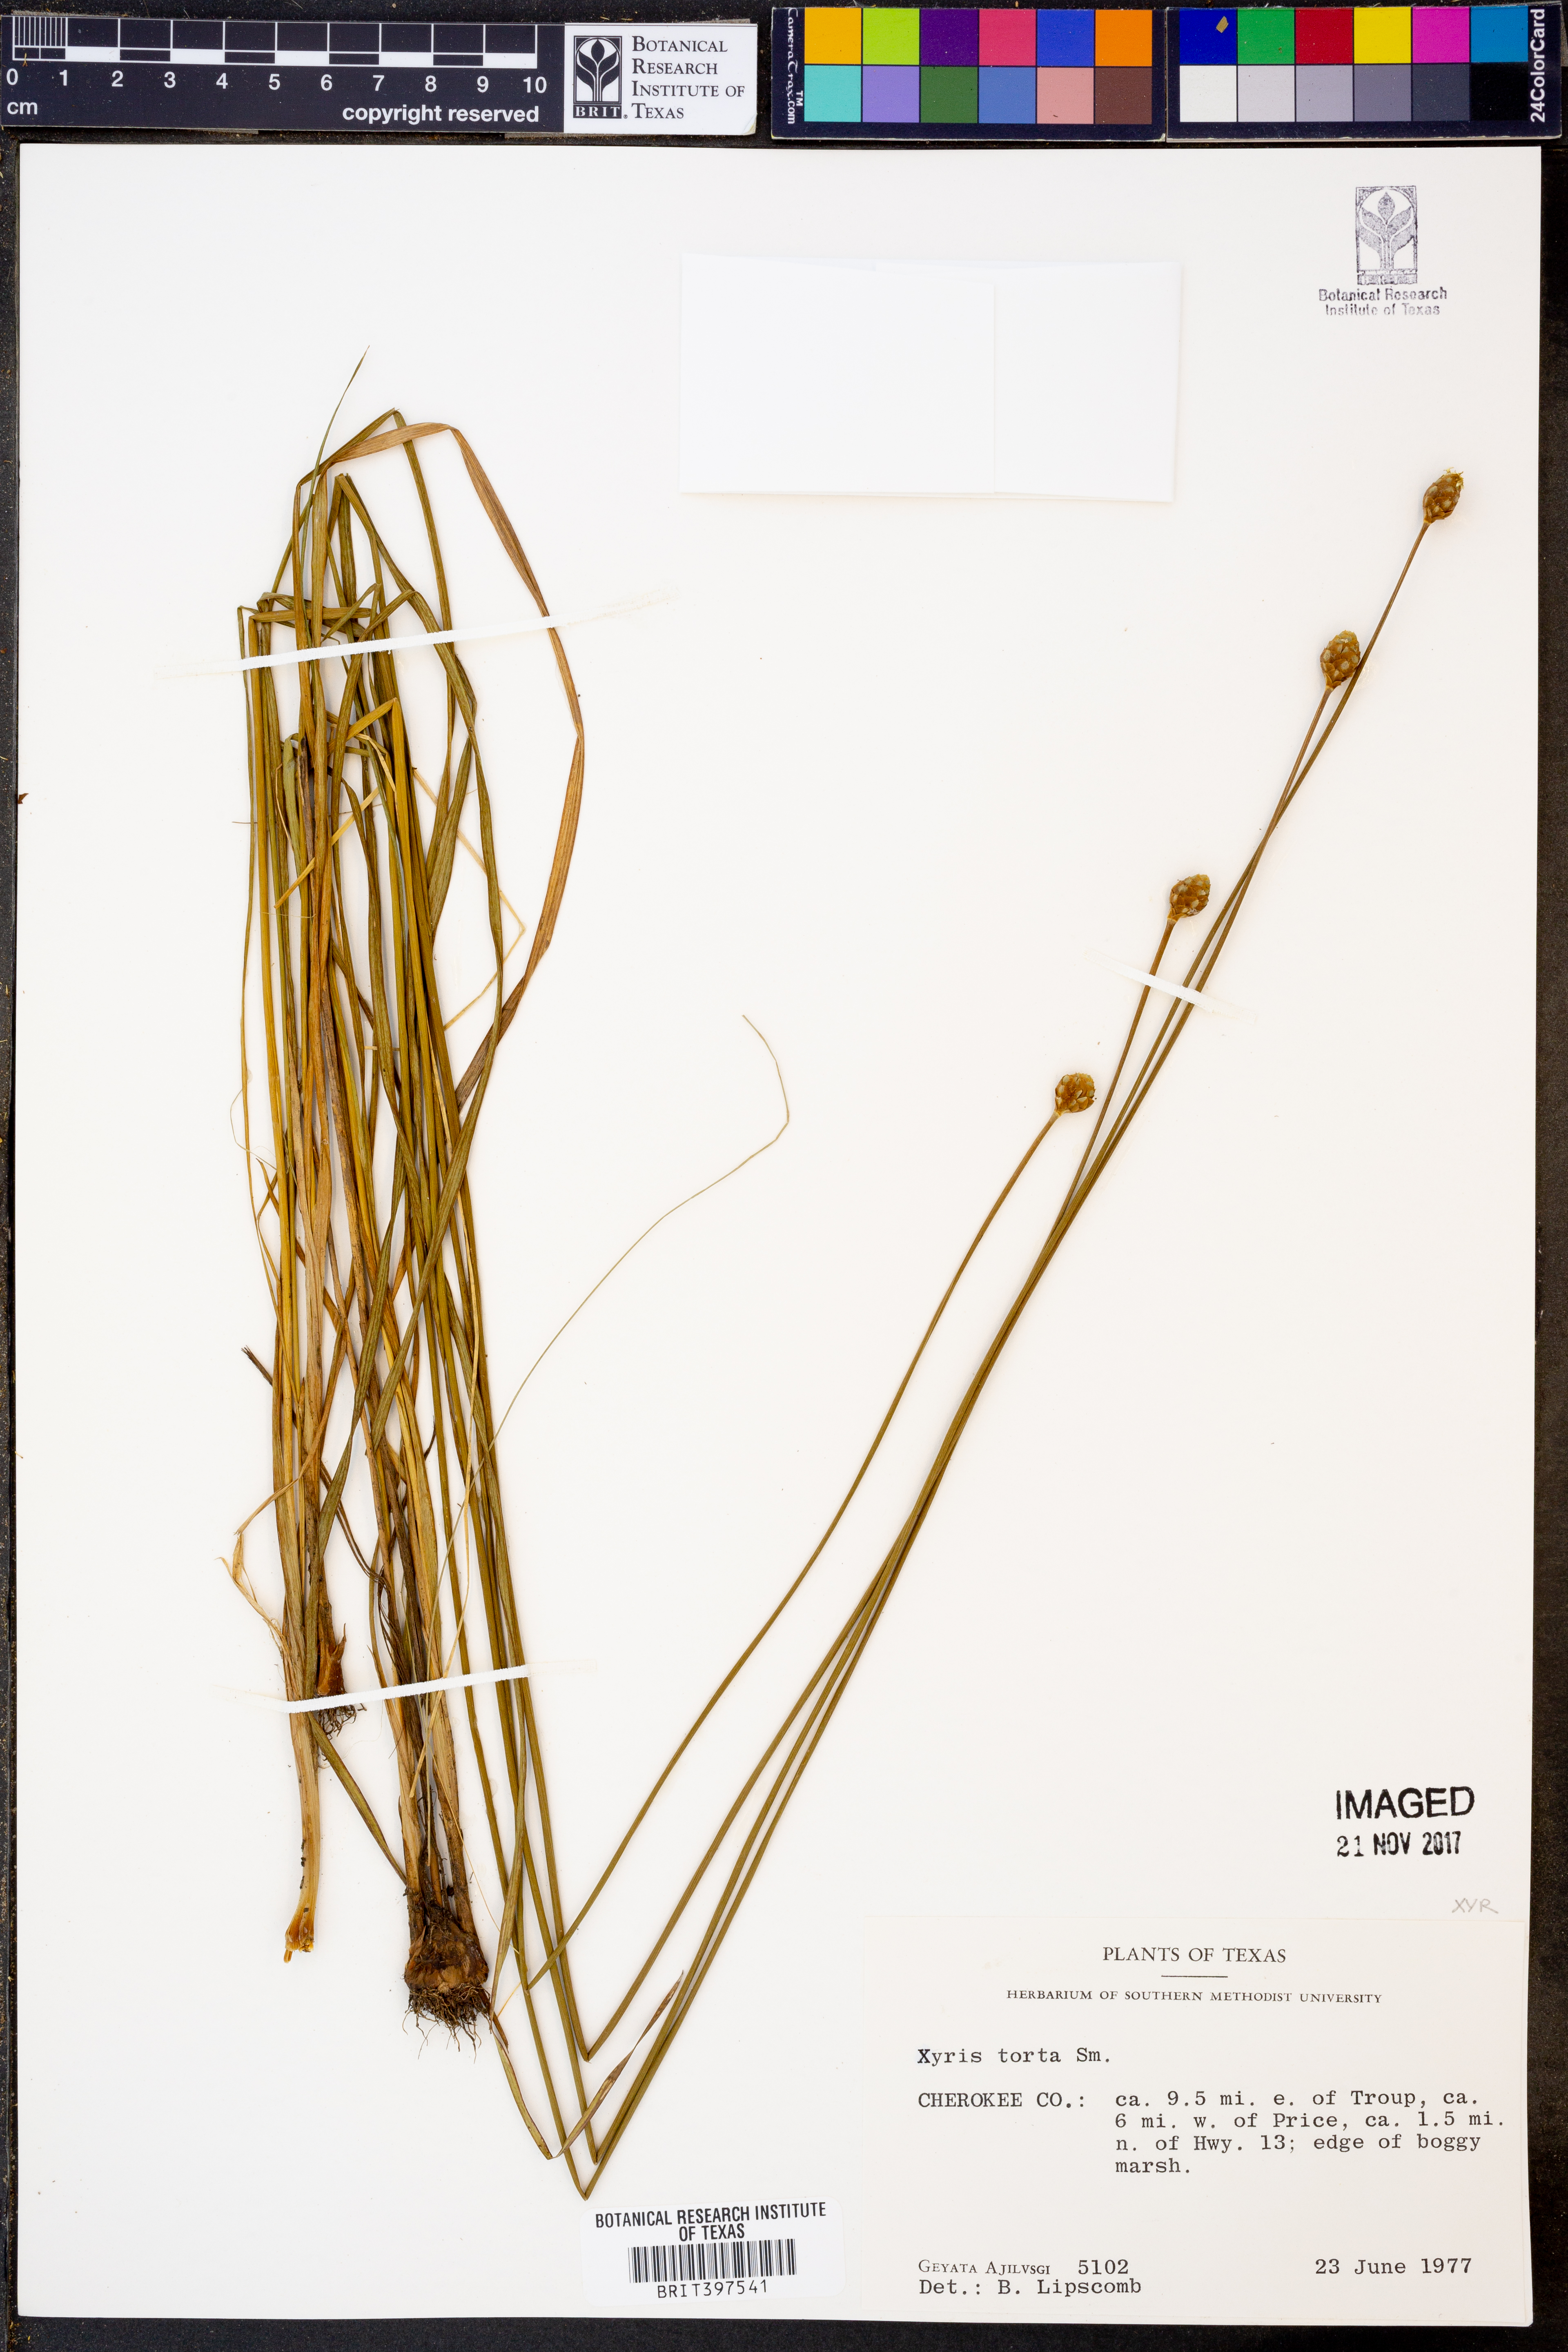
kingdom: Plantae
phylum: Tracheophyta
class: Liliopsida
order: Poales
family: Xyridaceae
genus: Xyris
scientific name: Xyris torta
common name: Common yelloweyed grass
